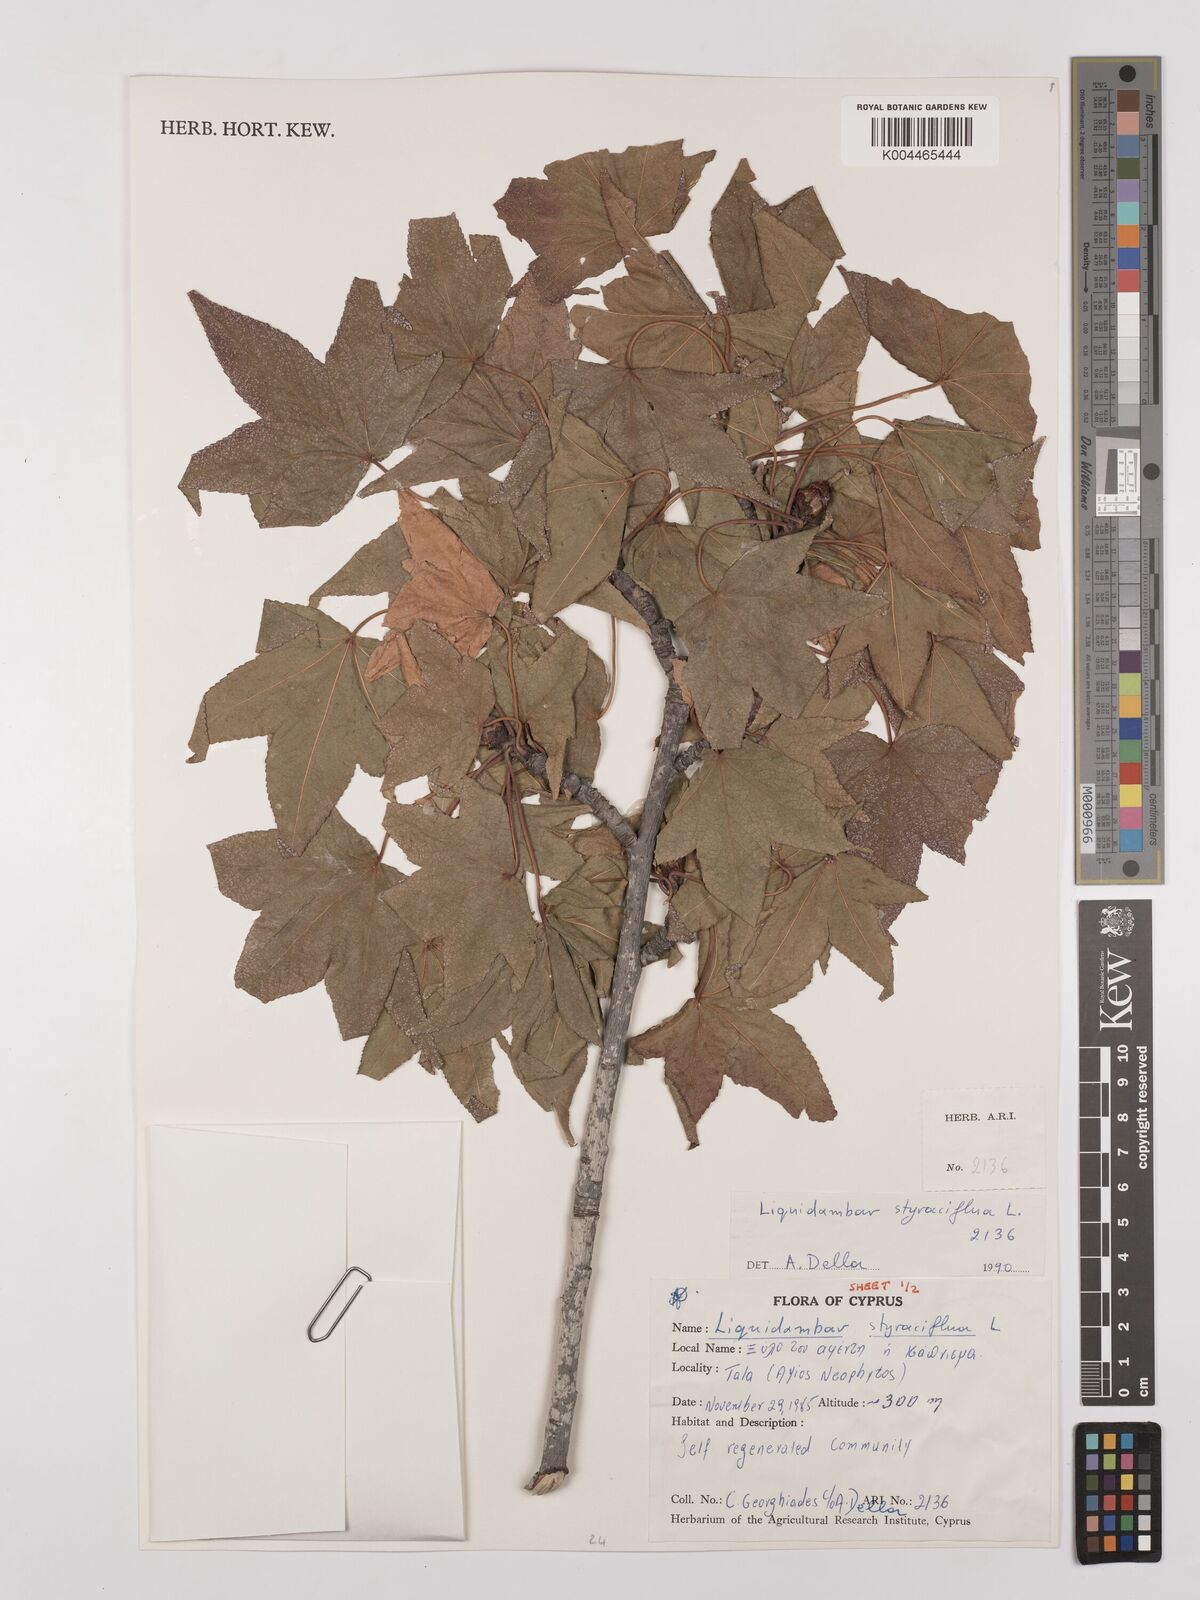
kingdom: Plantae
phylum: Tracheophyta
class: Magnoliopsida
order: Saxifragales
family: Altingiaceae
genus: Liquidambar
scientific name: Liquidambar styraciflua
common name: Sweet gum
